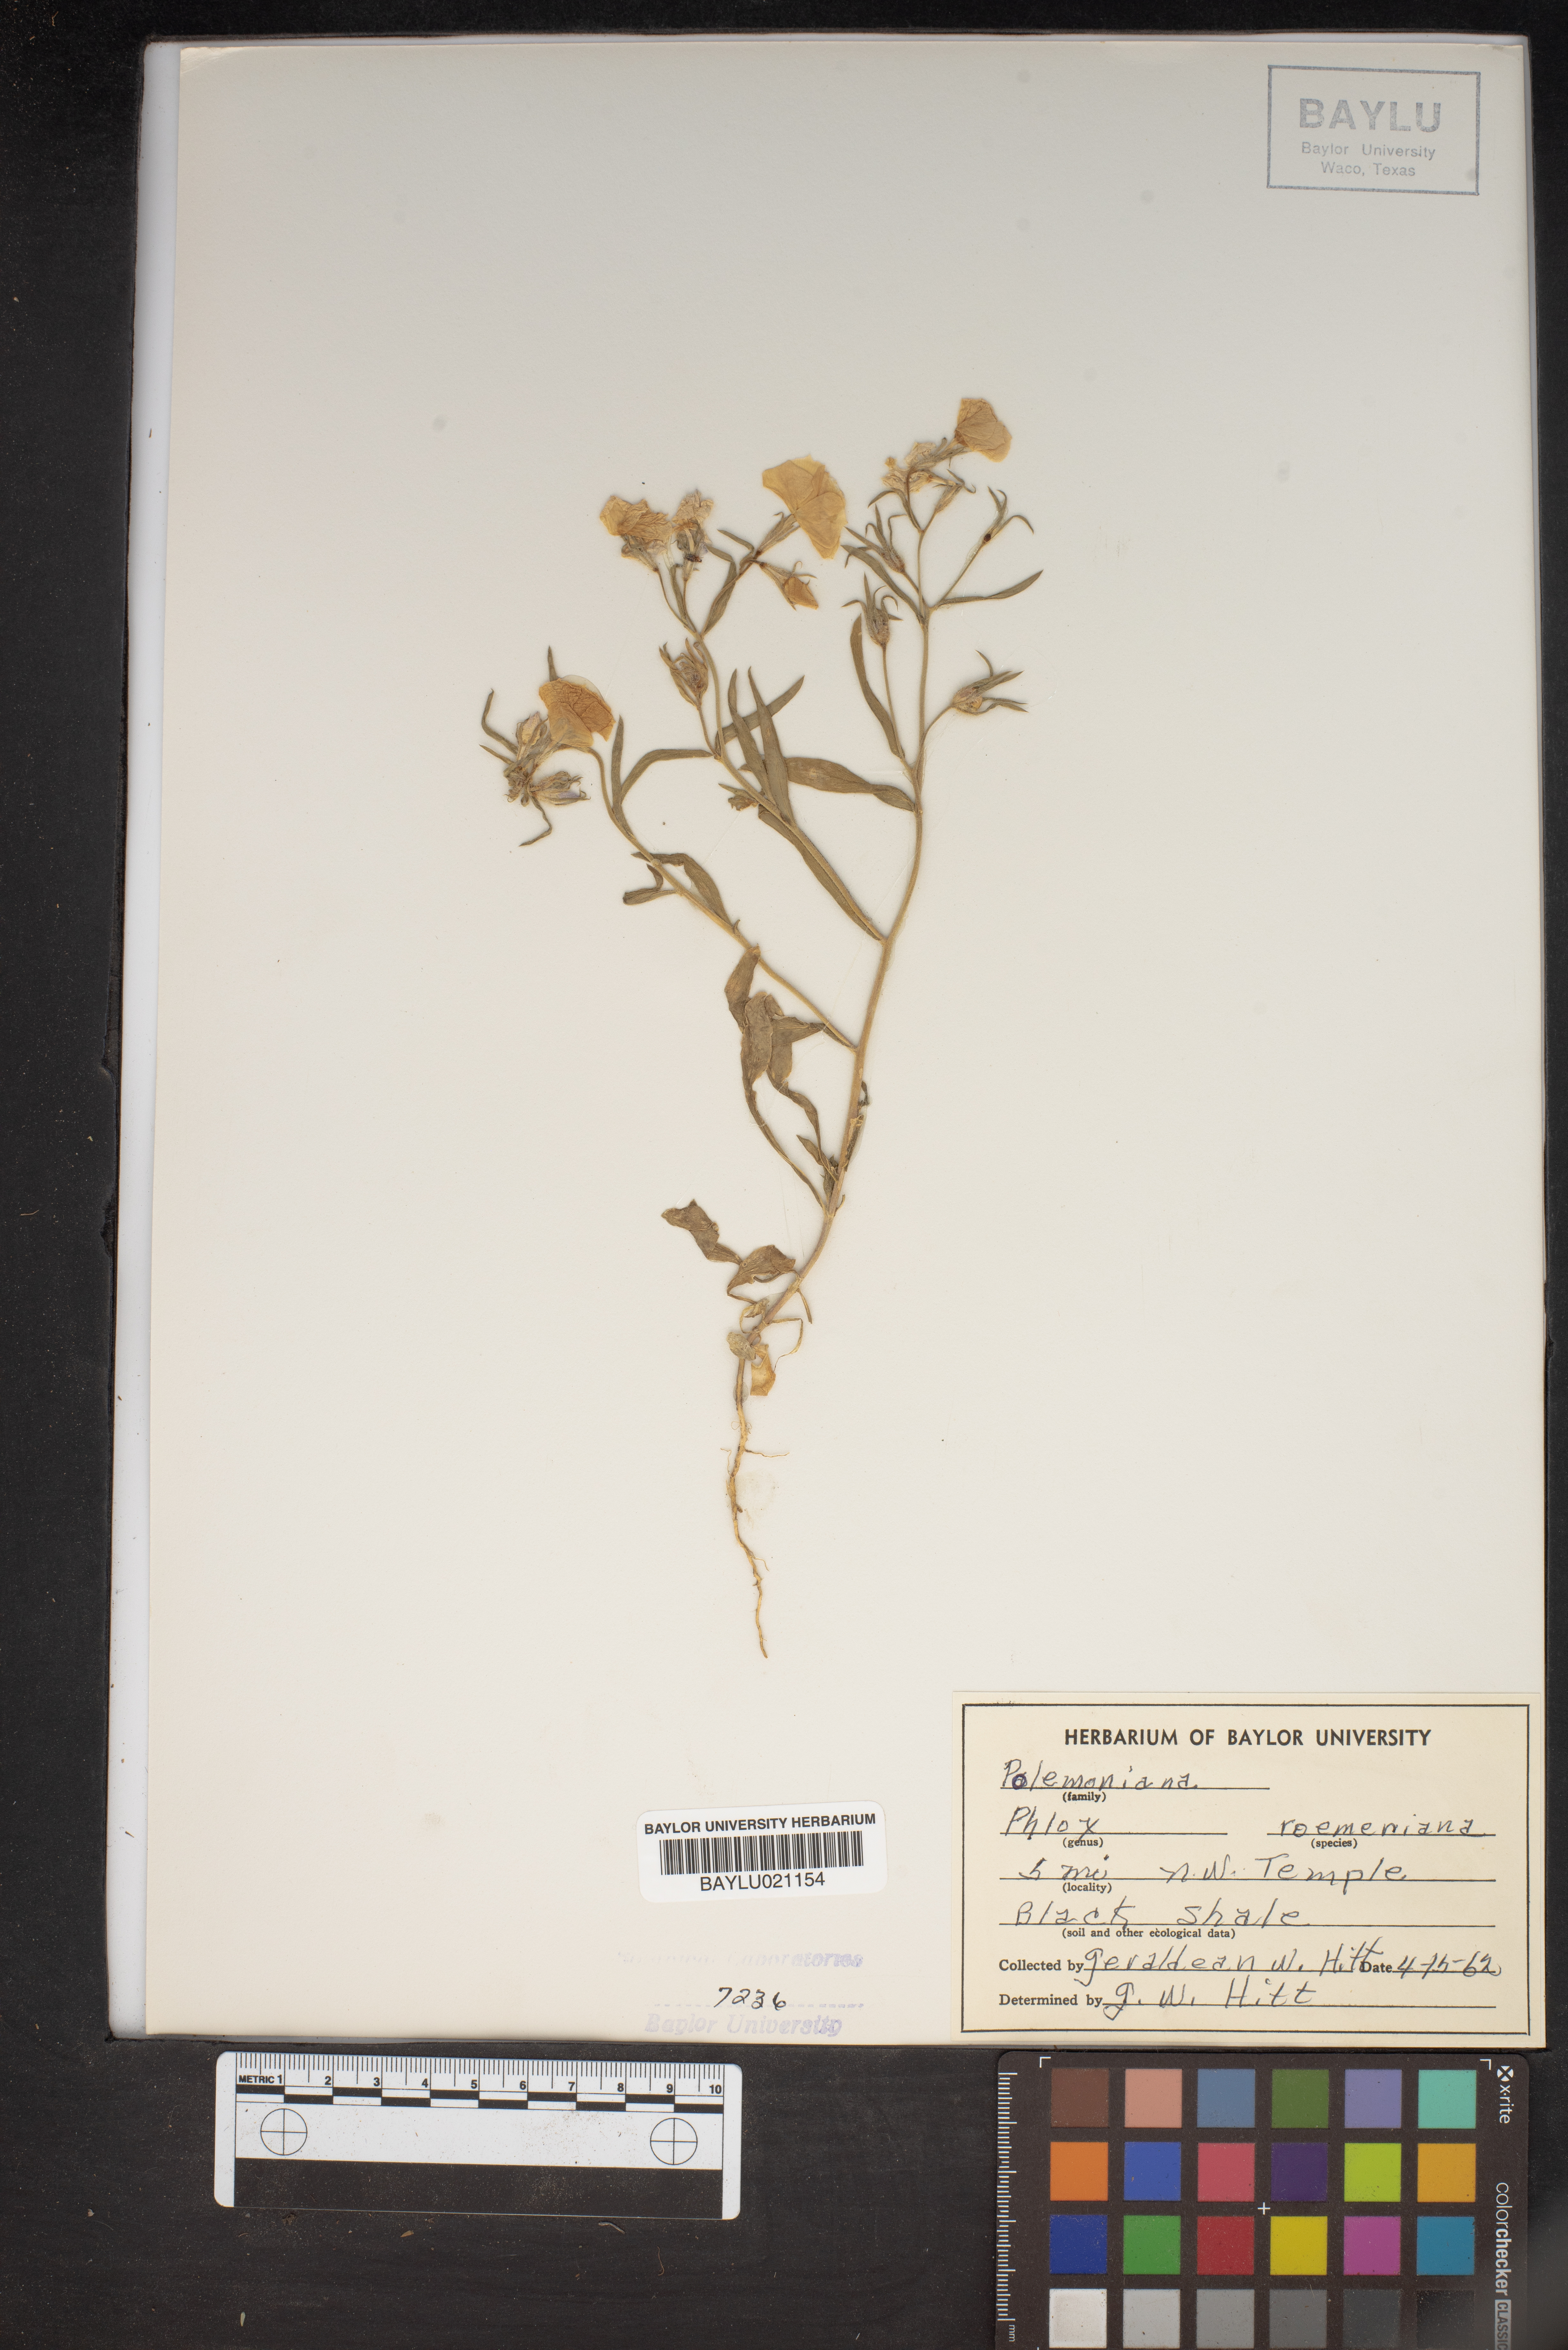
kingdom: Plantae
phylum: Tracheophyta
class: Magnoliopsida
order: Ericales
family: Polemoniaceae
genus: Phlox
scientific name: Phlox roemeriana
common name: Roemer's phlox
